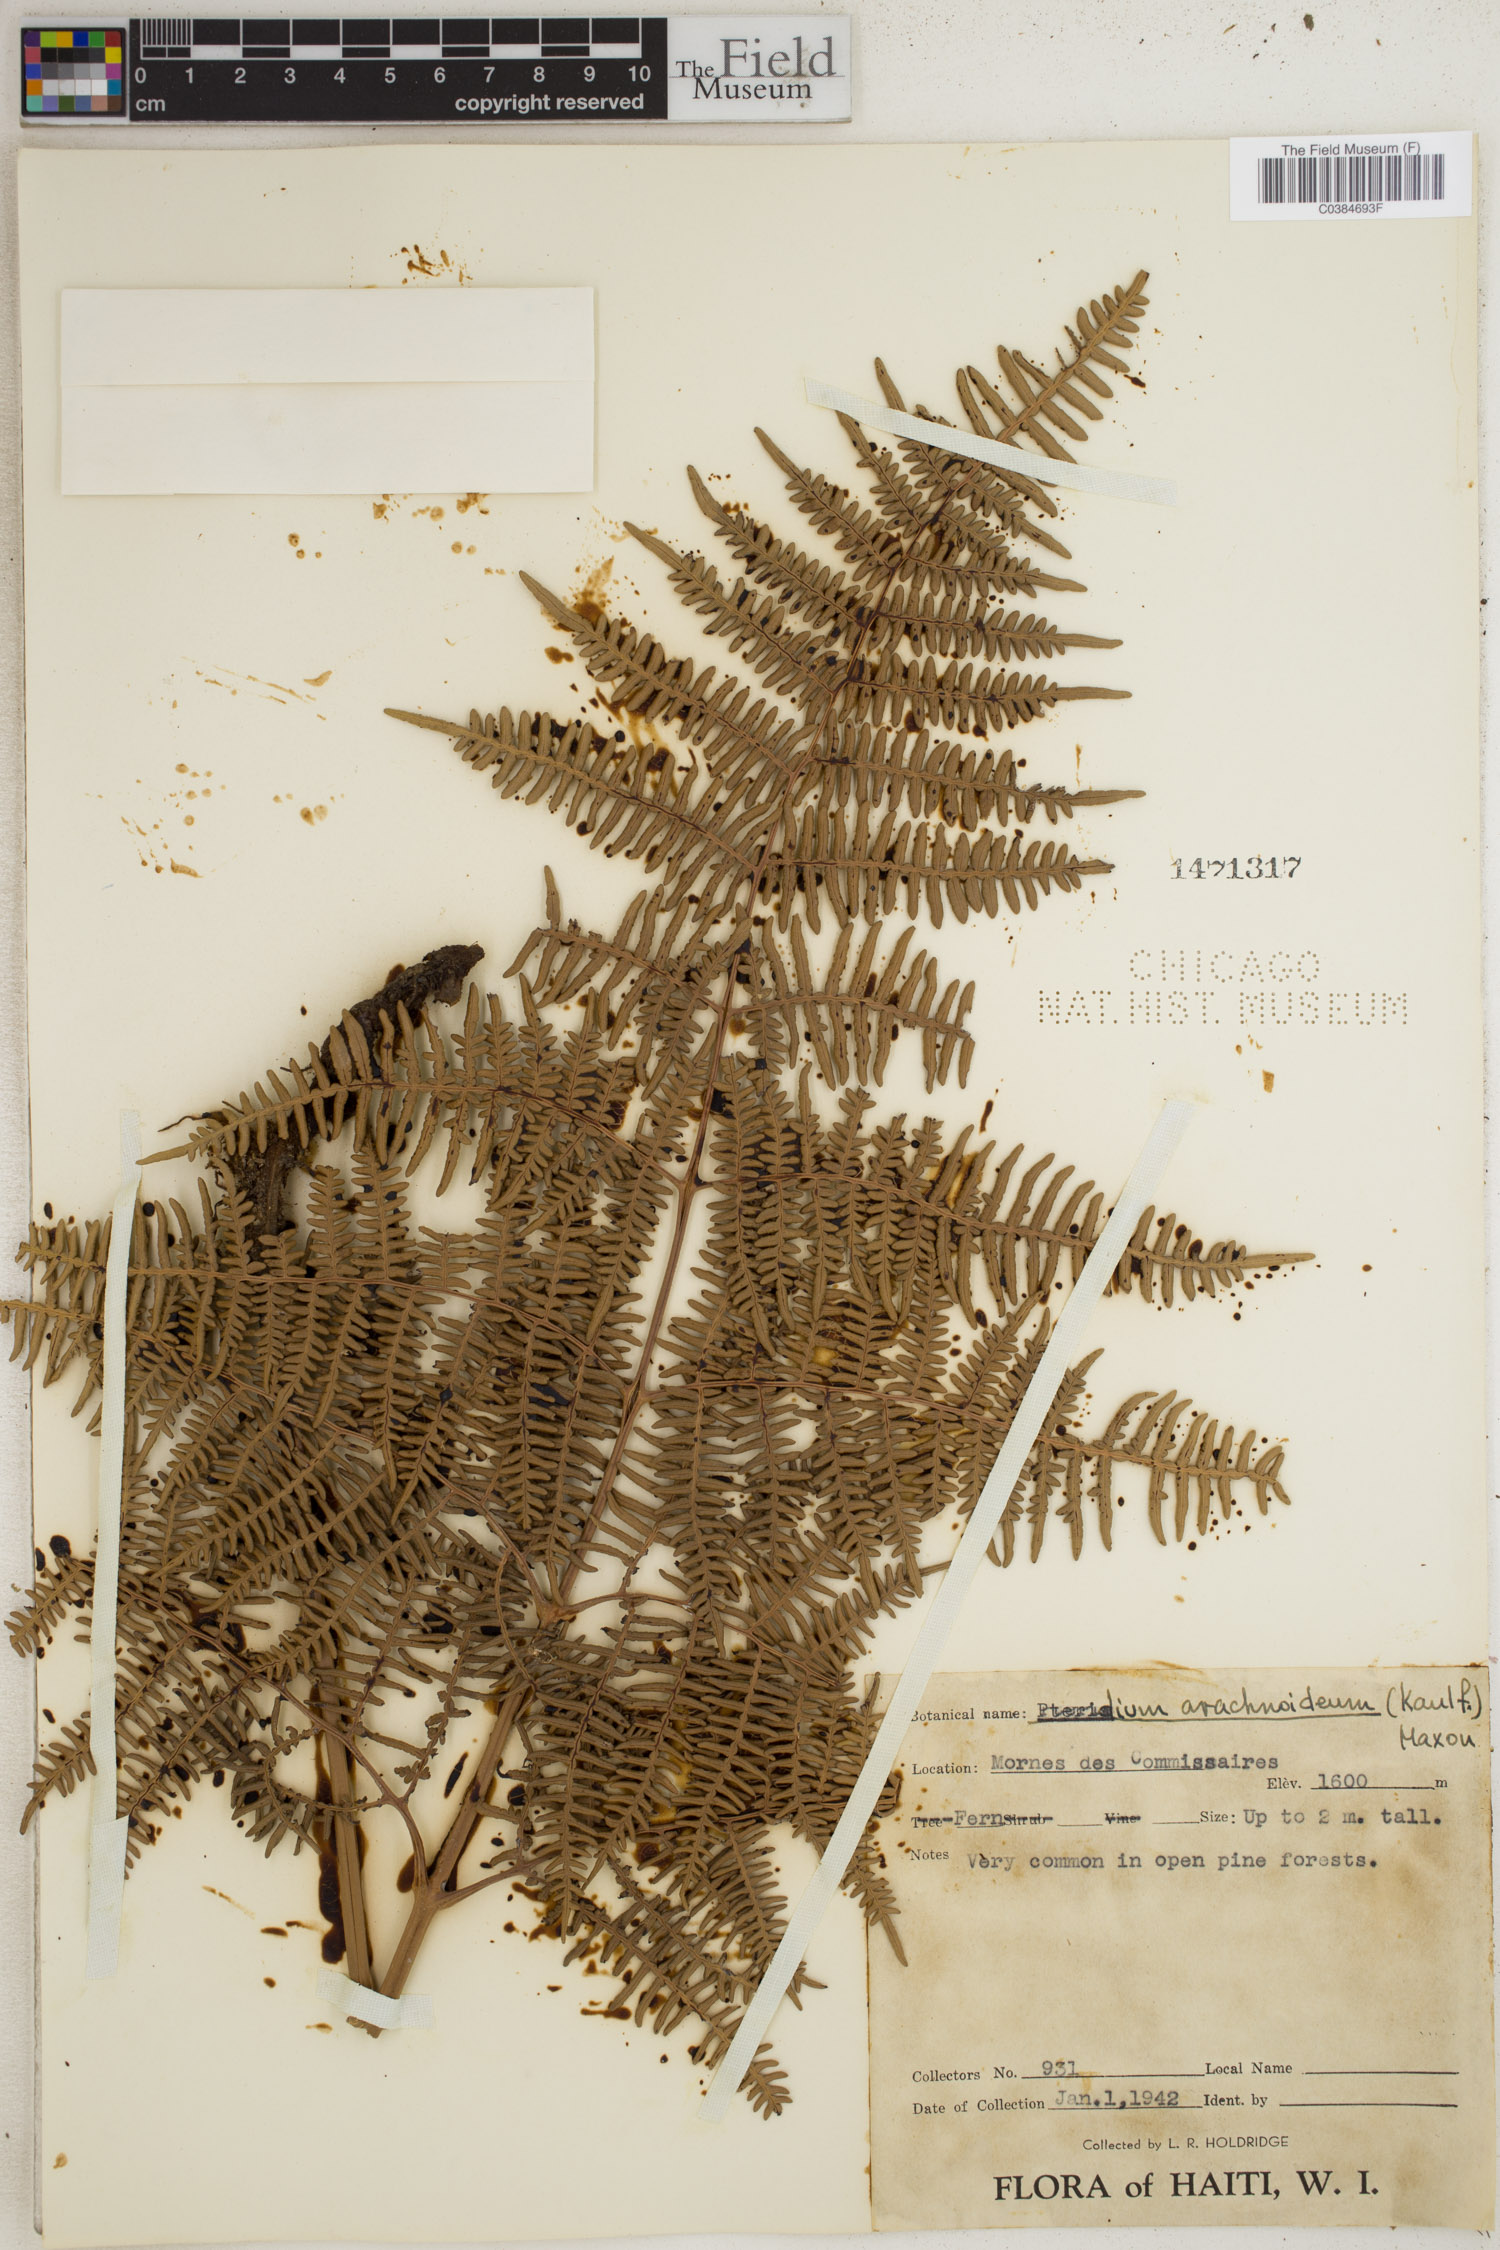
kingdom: Plantae
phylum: Tracheophyta
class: Polypodiopsida
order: Polypodiales
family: Dennstaedtiaceae
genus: Pteridium
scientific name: Pteridium esculentum
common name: Bracken fern
